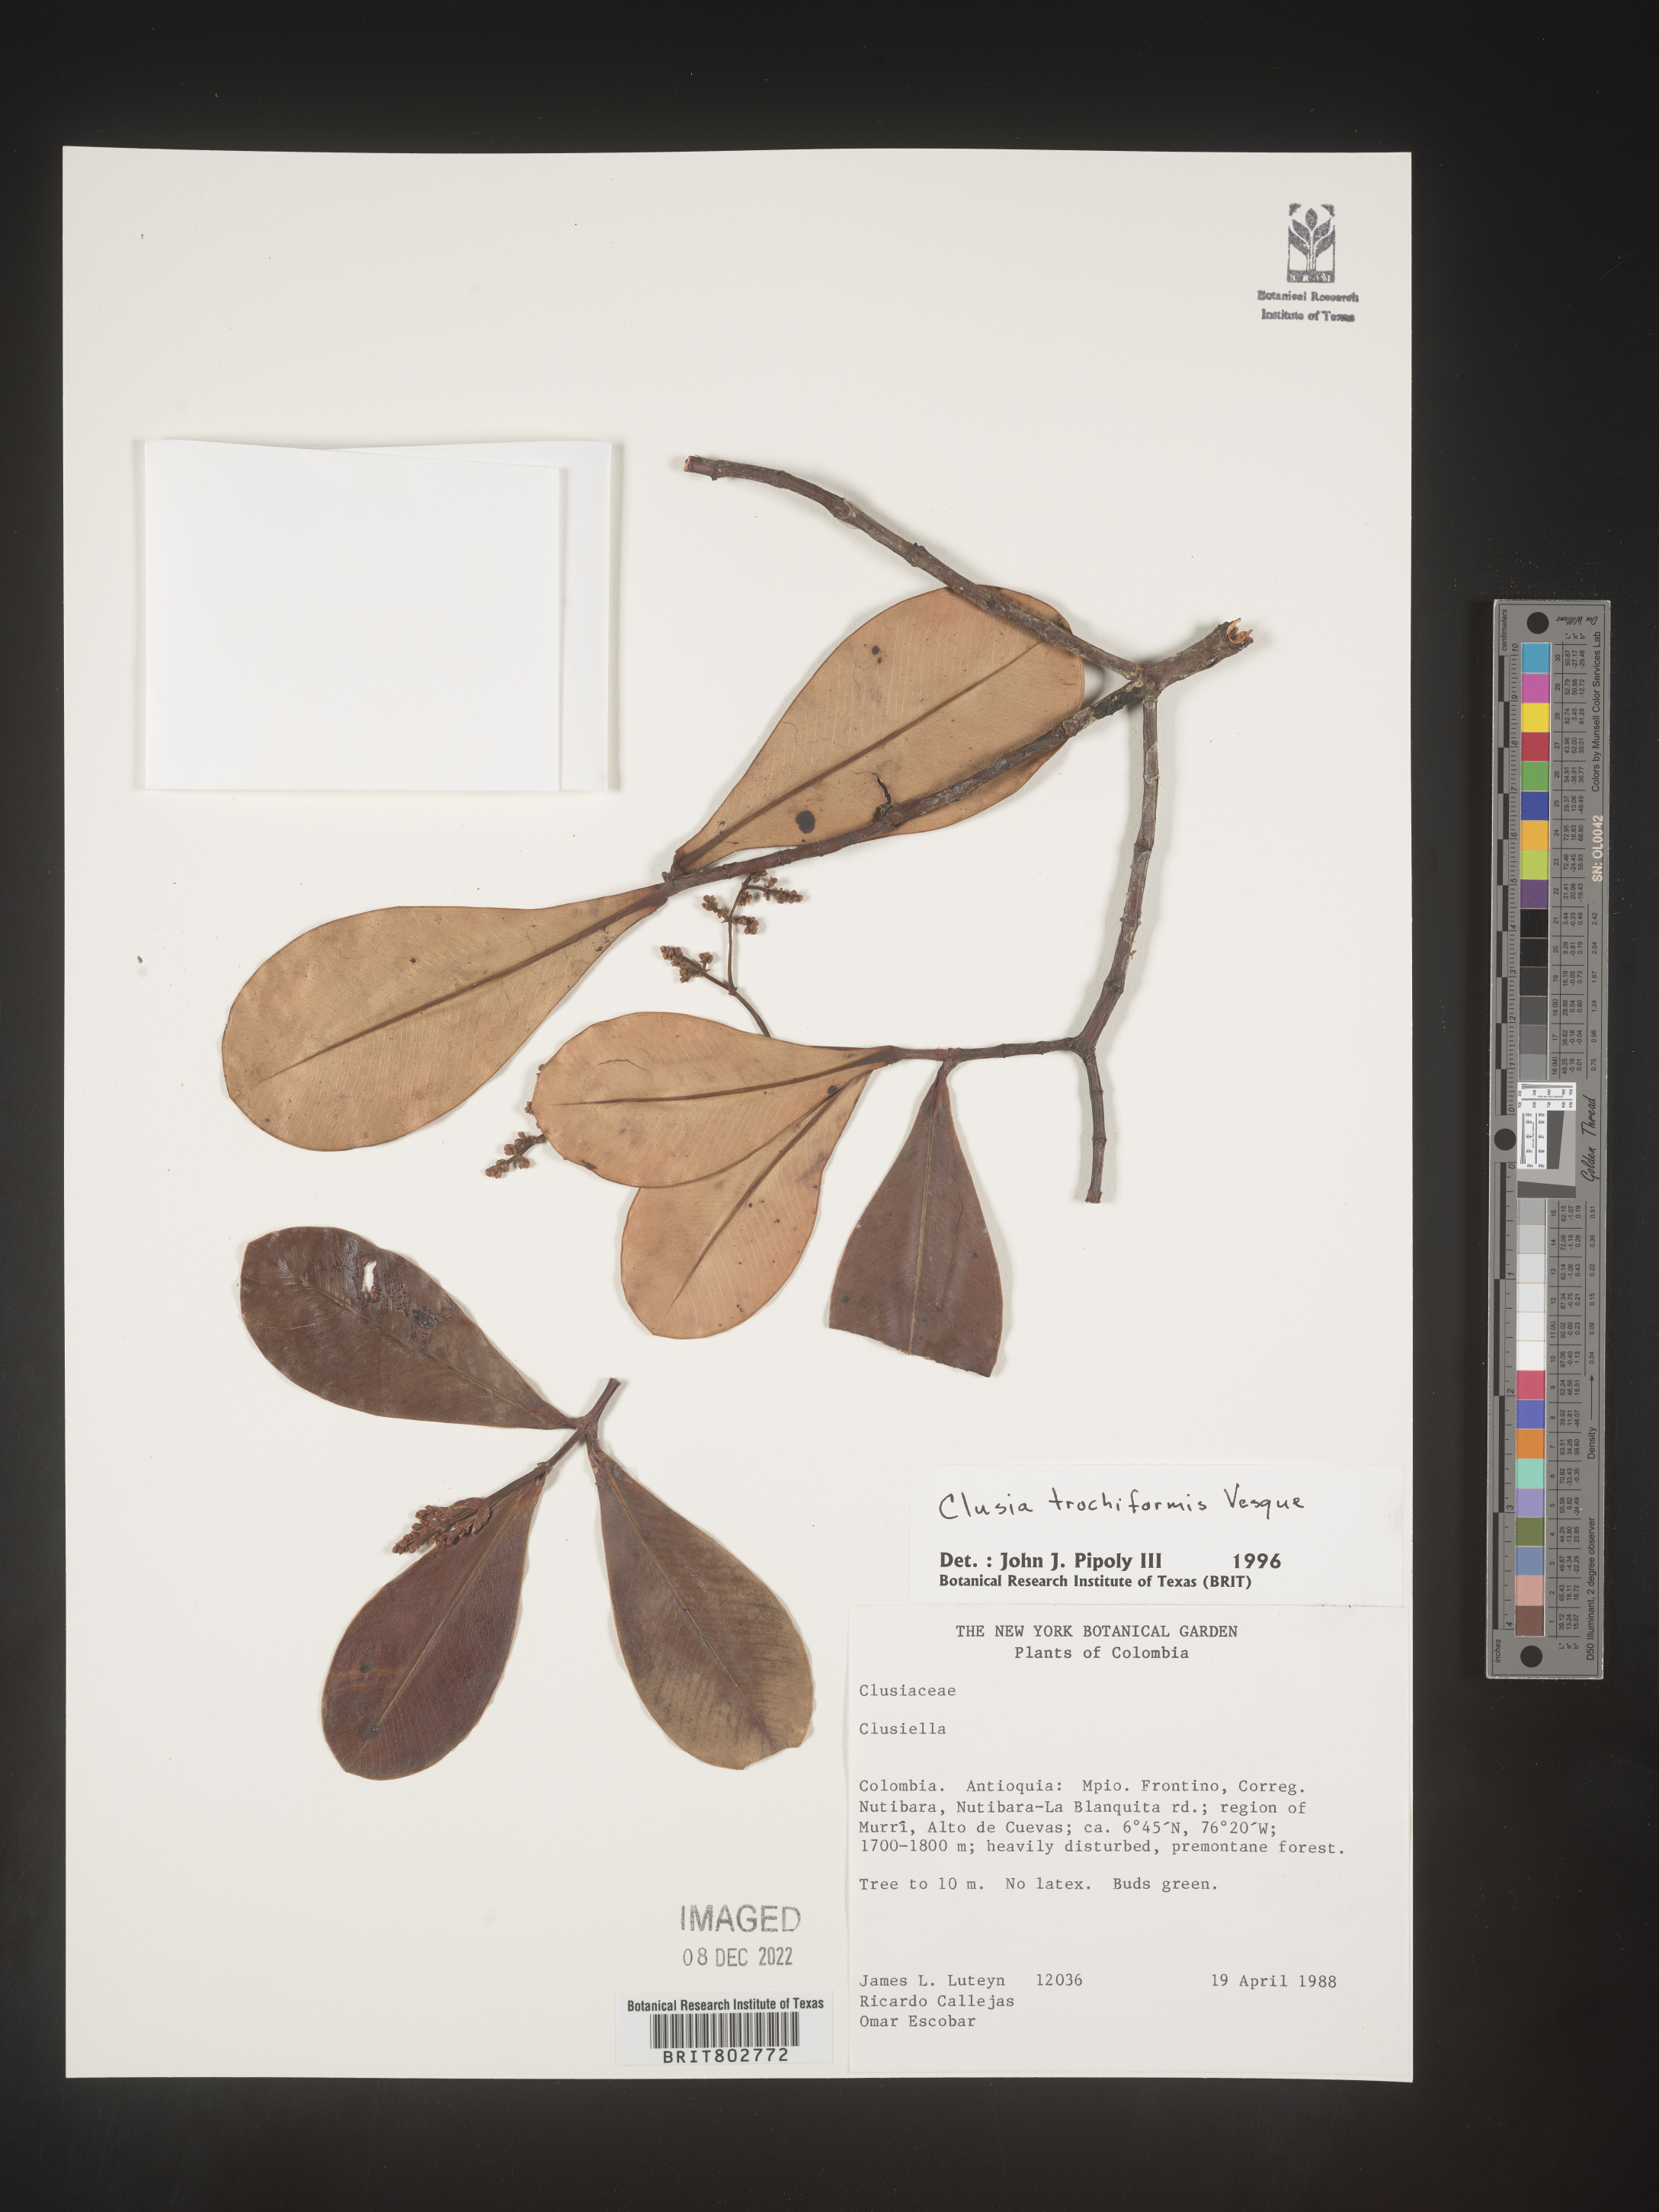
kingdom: Plantae
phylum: Tracheophyta
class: Magnoliopsida
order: Malpighiales
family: Clusiaceae
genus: Clusia
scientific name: Clusia trochiformis
